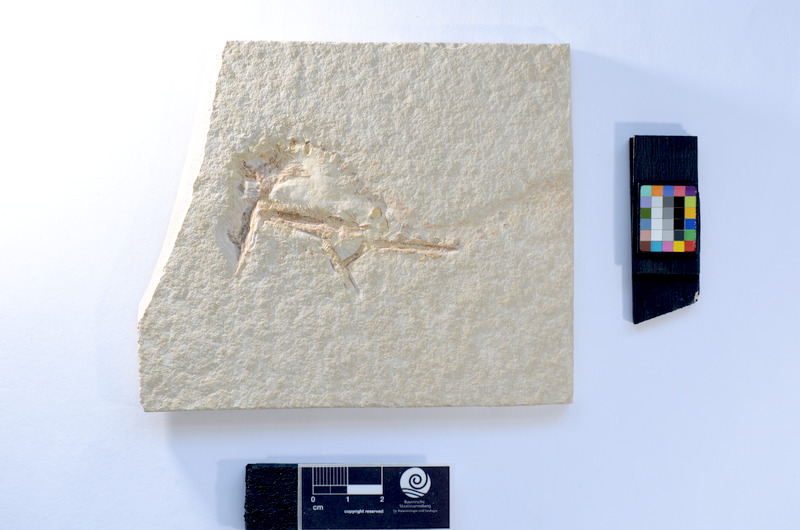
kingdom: Animalia
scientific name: Animalia
